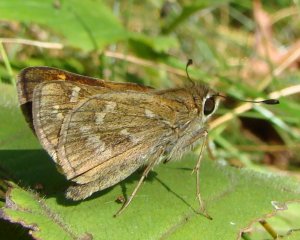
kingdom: Animalia
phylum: Arthropoda
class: Insecta
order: Lepidoptera
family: Hesperiidae
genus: Atalopedes
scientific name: Atalopedes campestris
